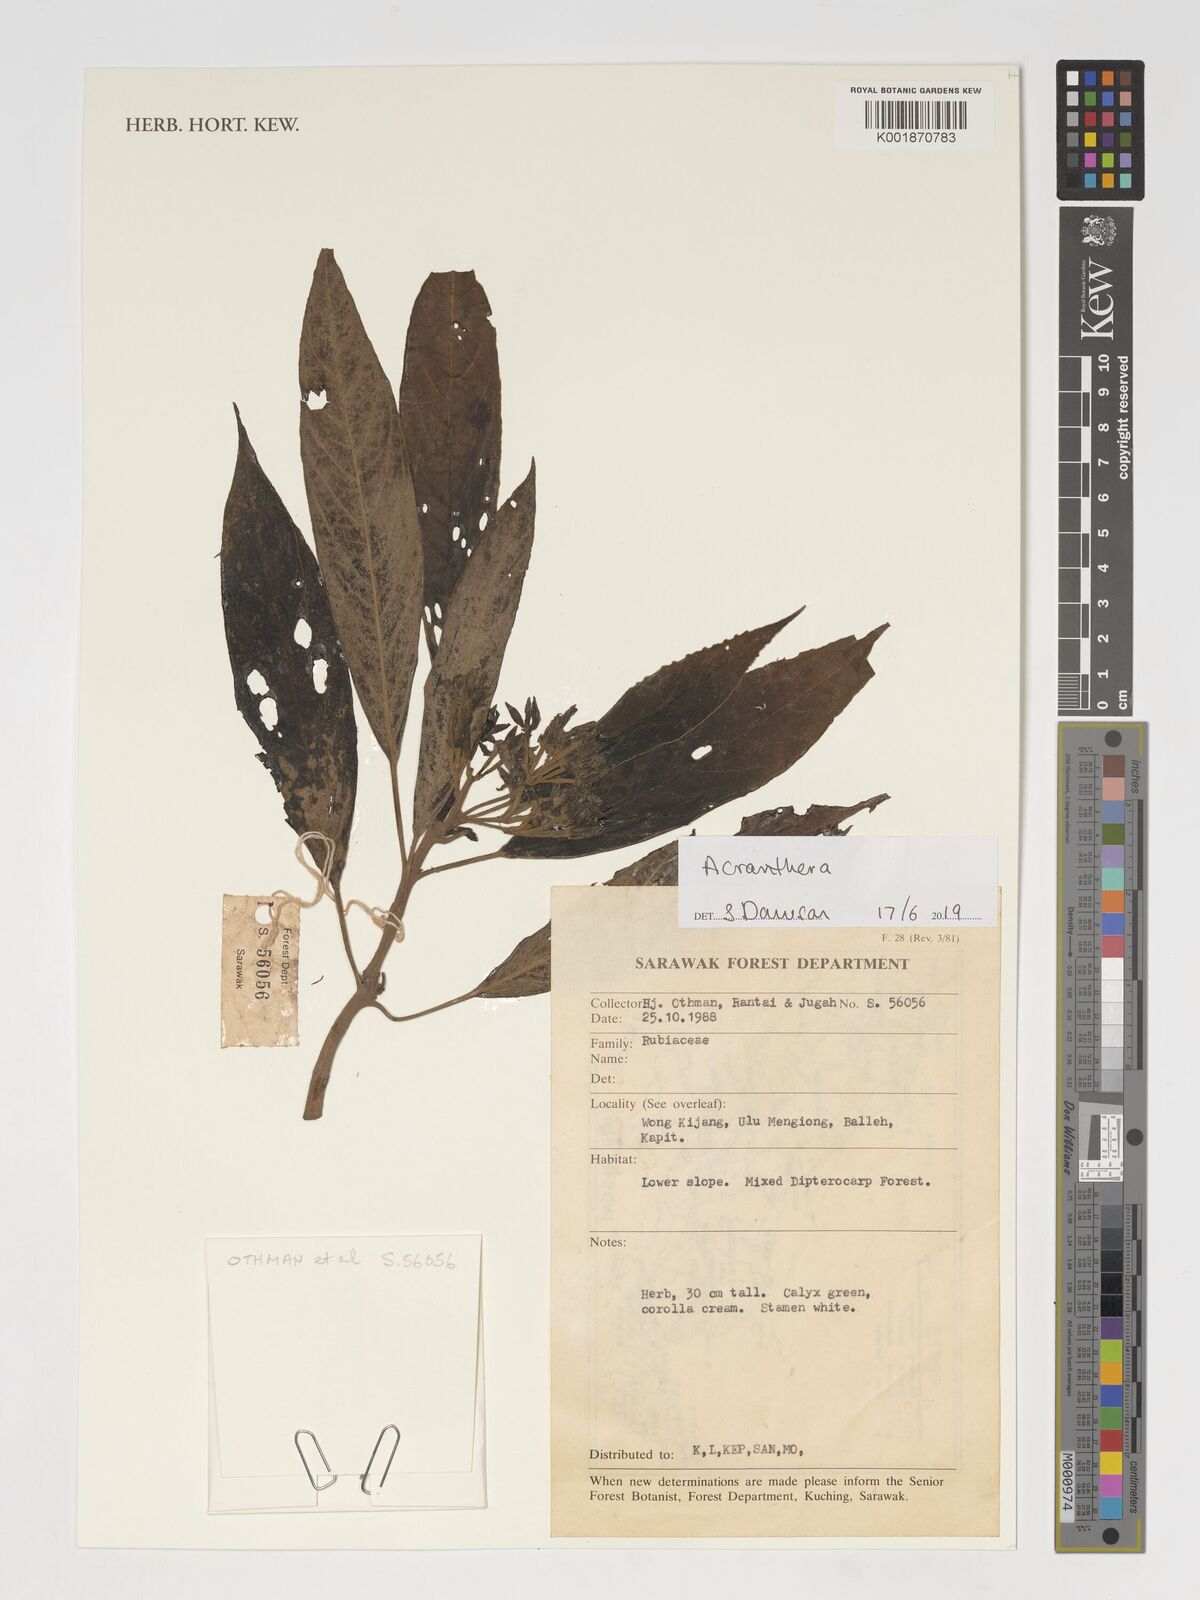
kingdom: Plantae
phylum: Tracheophyta
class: Magnoliopsida
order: Gentianales
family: Rubiaceae
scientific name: Rubiaceae
